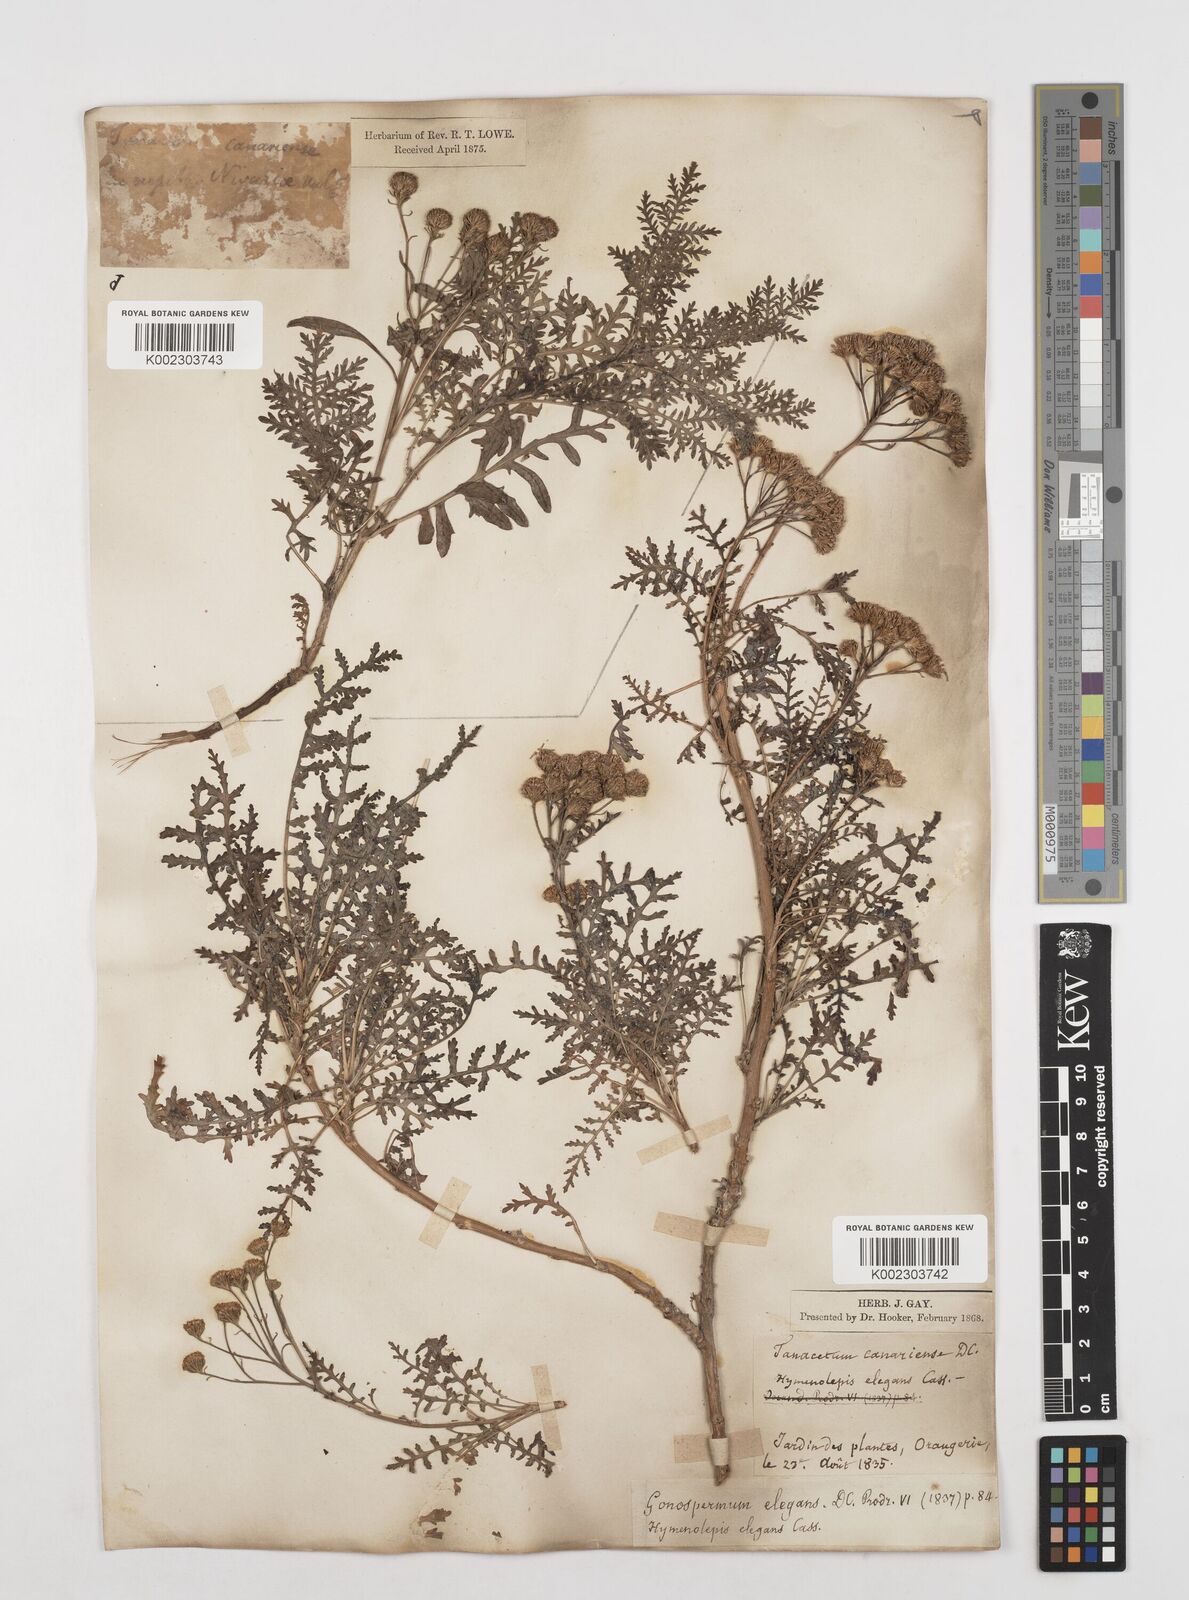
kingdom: Plantae
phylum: Tracheophyta
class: Magnoliopsida
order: Asterales
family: Asteraceae
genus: Gonospermum
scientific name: Gonospermum fruticosum
